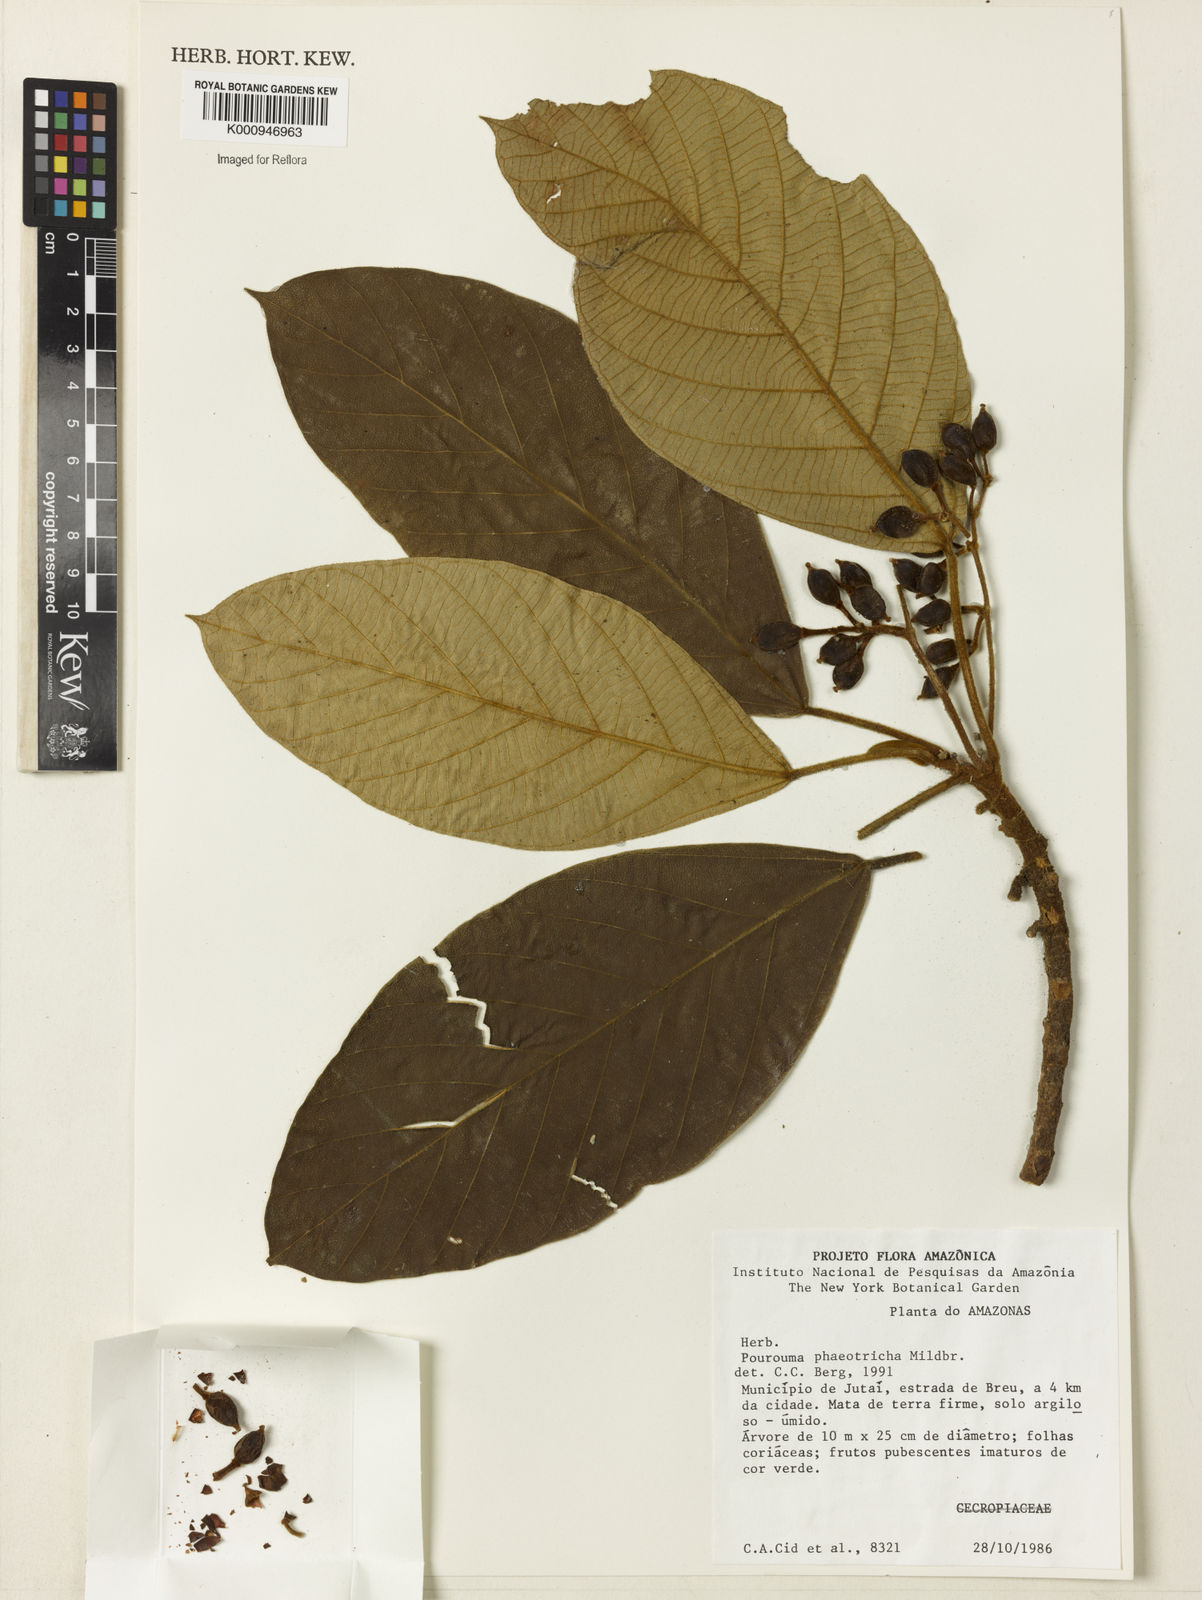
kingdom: Plantae
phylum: Tracheophyta
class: Magnoliopsida
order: Rosales
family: Urticaceae
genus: Pourouma
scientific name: Pourouma phaeotricha
